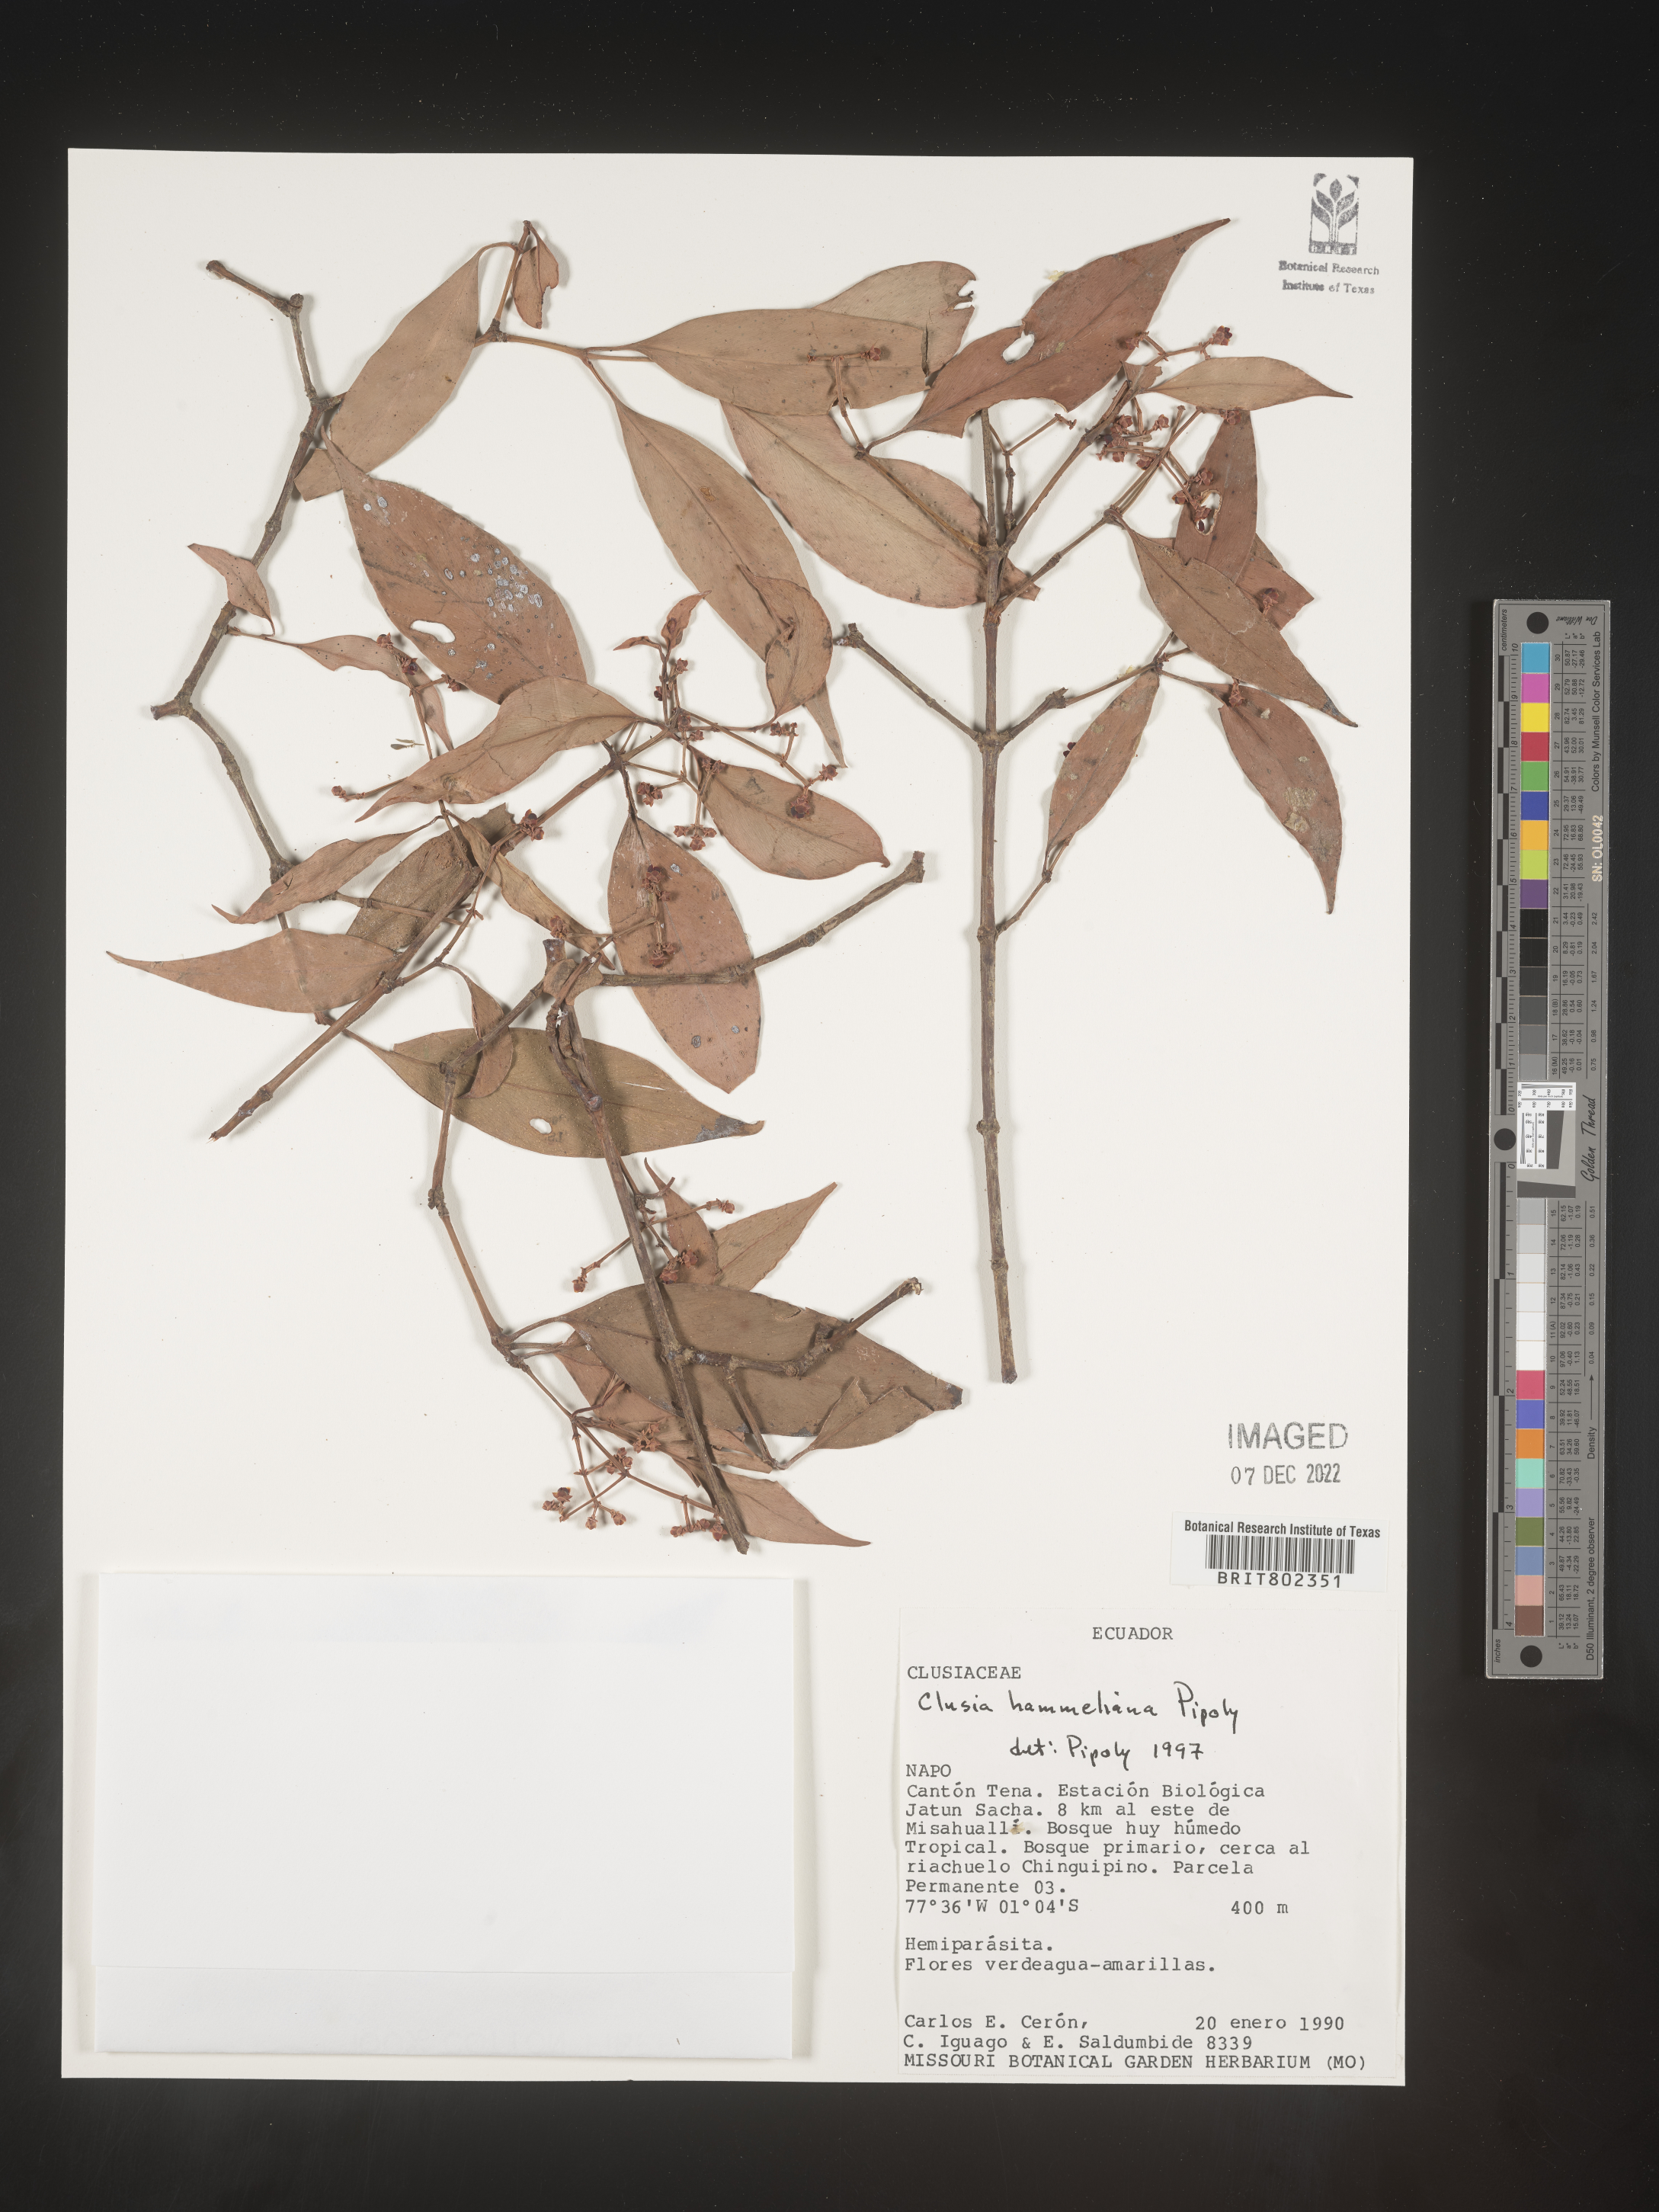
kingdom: Plantae
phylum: Tracheophyta
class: Magnoliopsida
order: Malpighiales
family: Clusiaceae
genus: Clusia
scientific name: Clusia hammeliana
